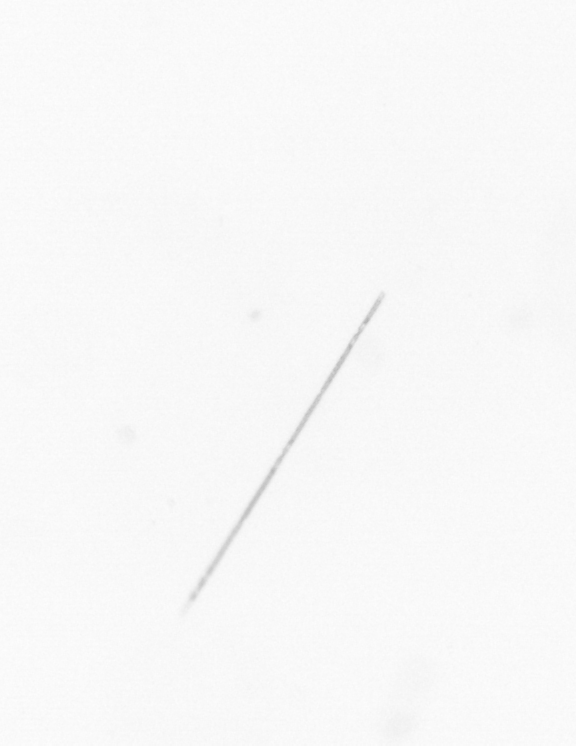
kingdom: Chromista
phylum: Ochrophyta
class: Bacillariophyceae
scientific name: Bacillariophyceae
